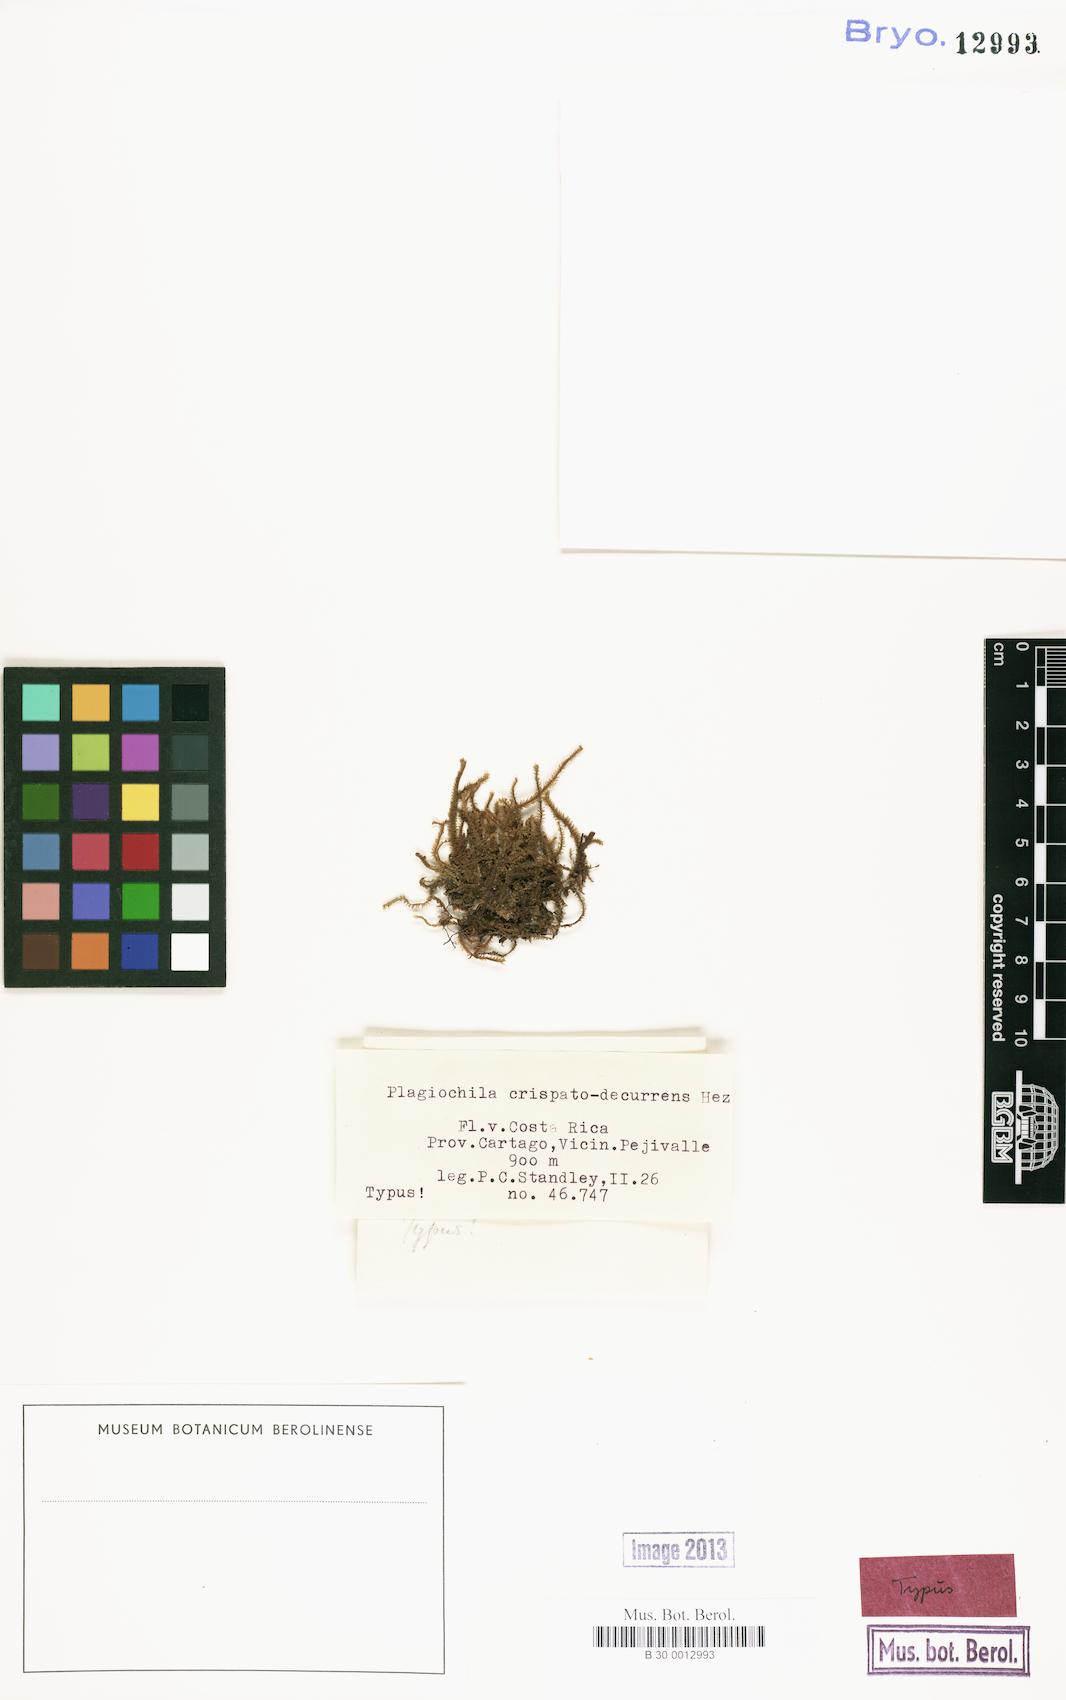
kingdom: Plantae
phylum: Marchantiophyta
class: Jungermanniopsida
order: Jungermanniales
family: Plagiochilaceae
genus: Plagiochila
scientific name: Plagiochila raddiana
